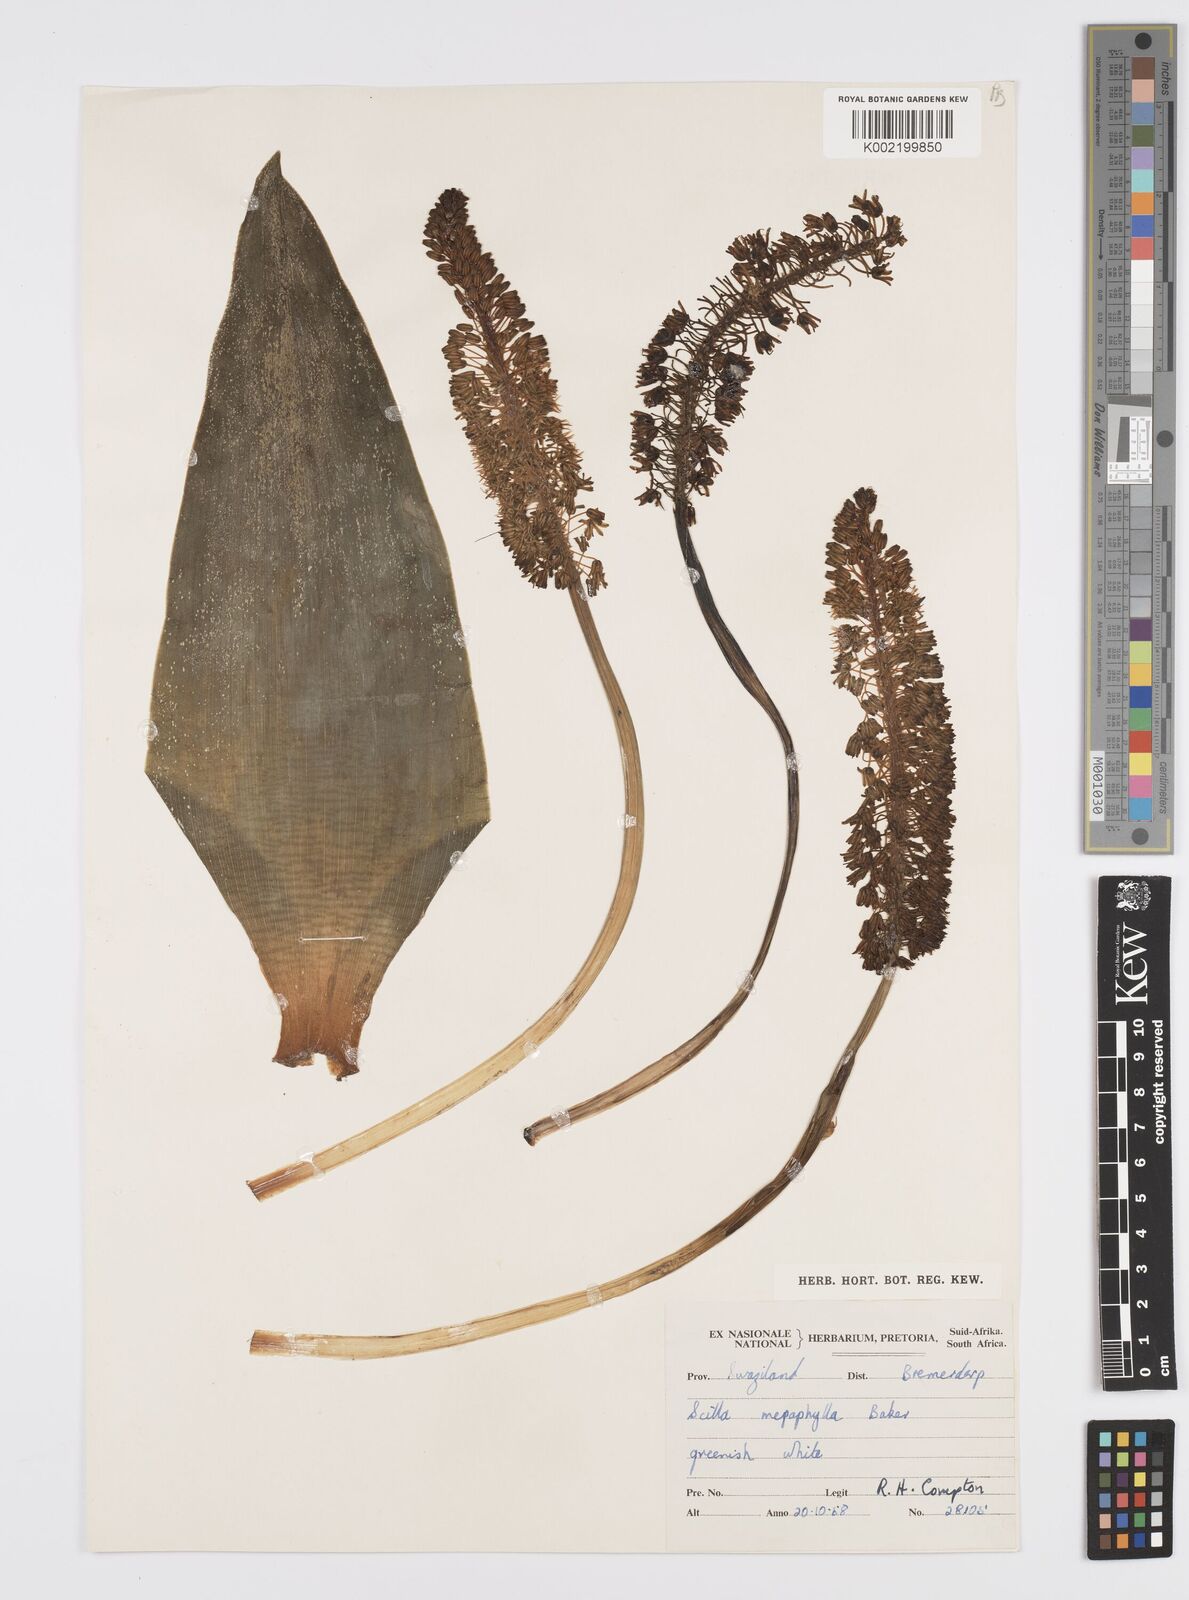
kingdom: Plantae
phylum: Tracheophyta
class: Liliopsida
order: Asparagales
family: Asparagaceae
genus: Ledebouria
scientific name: Ledebouria floribunda
